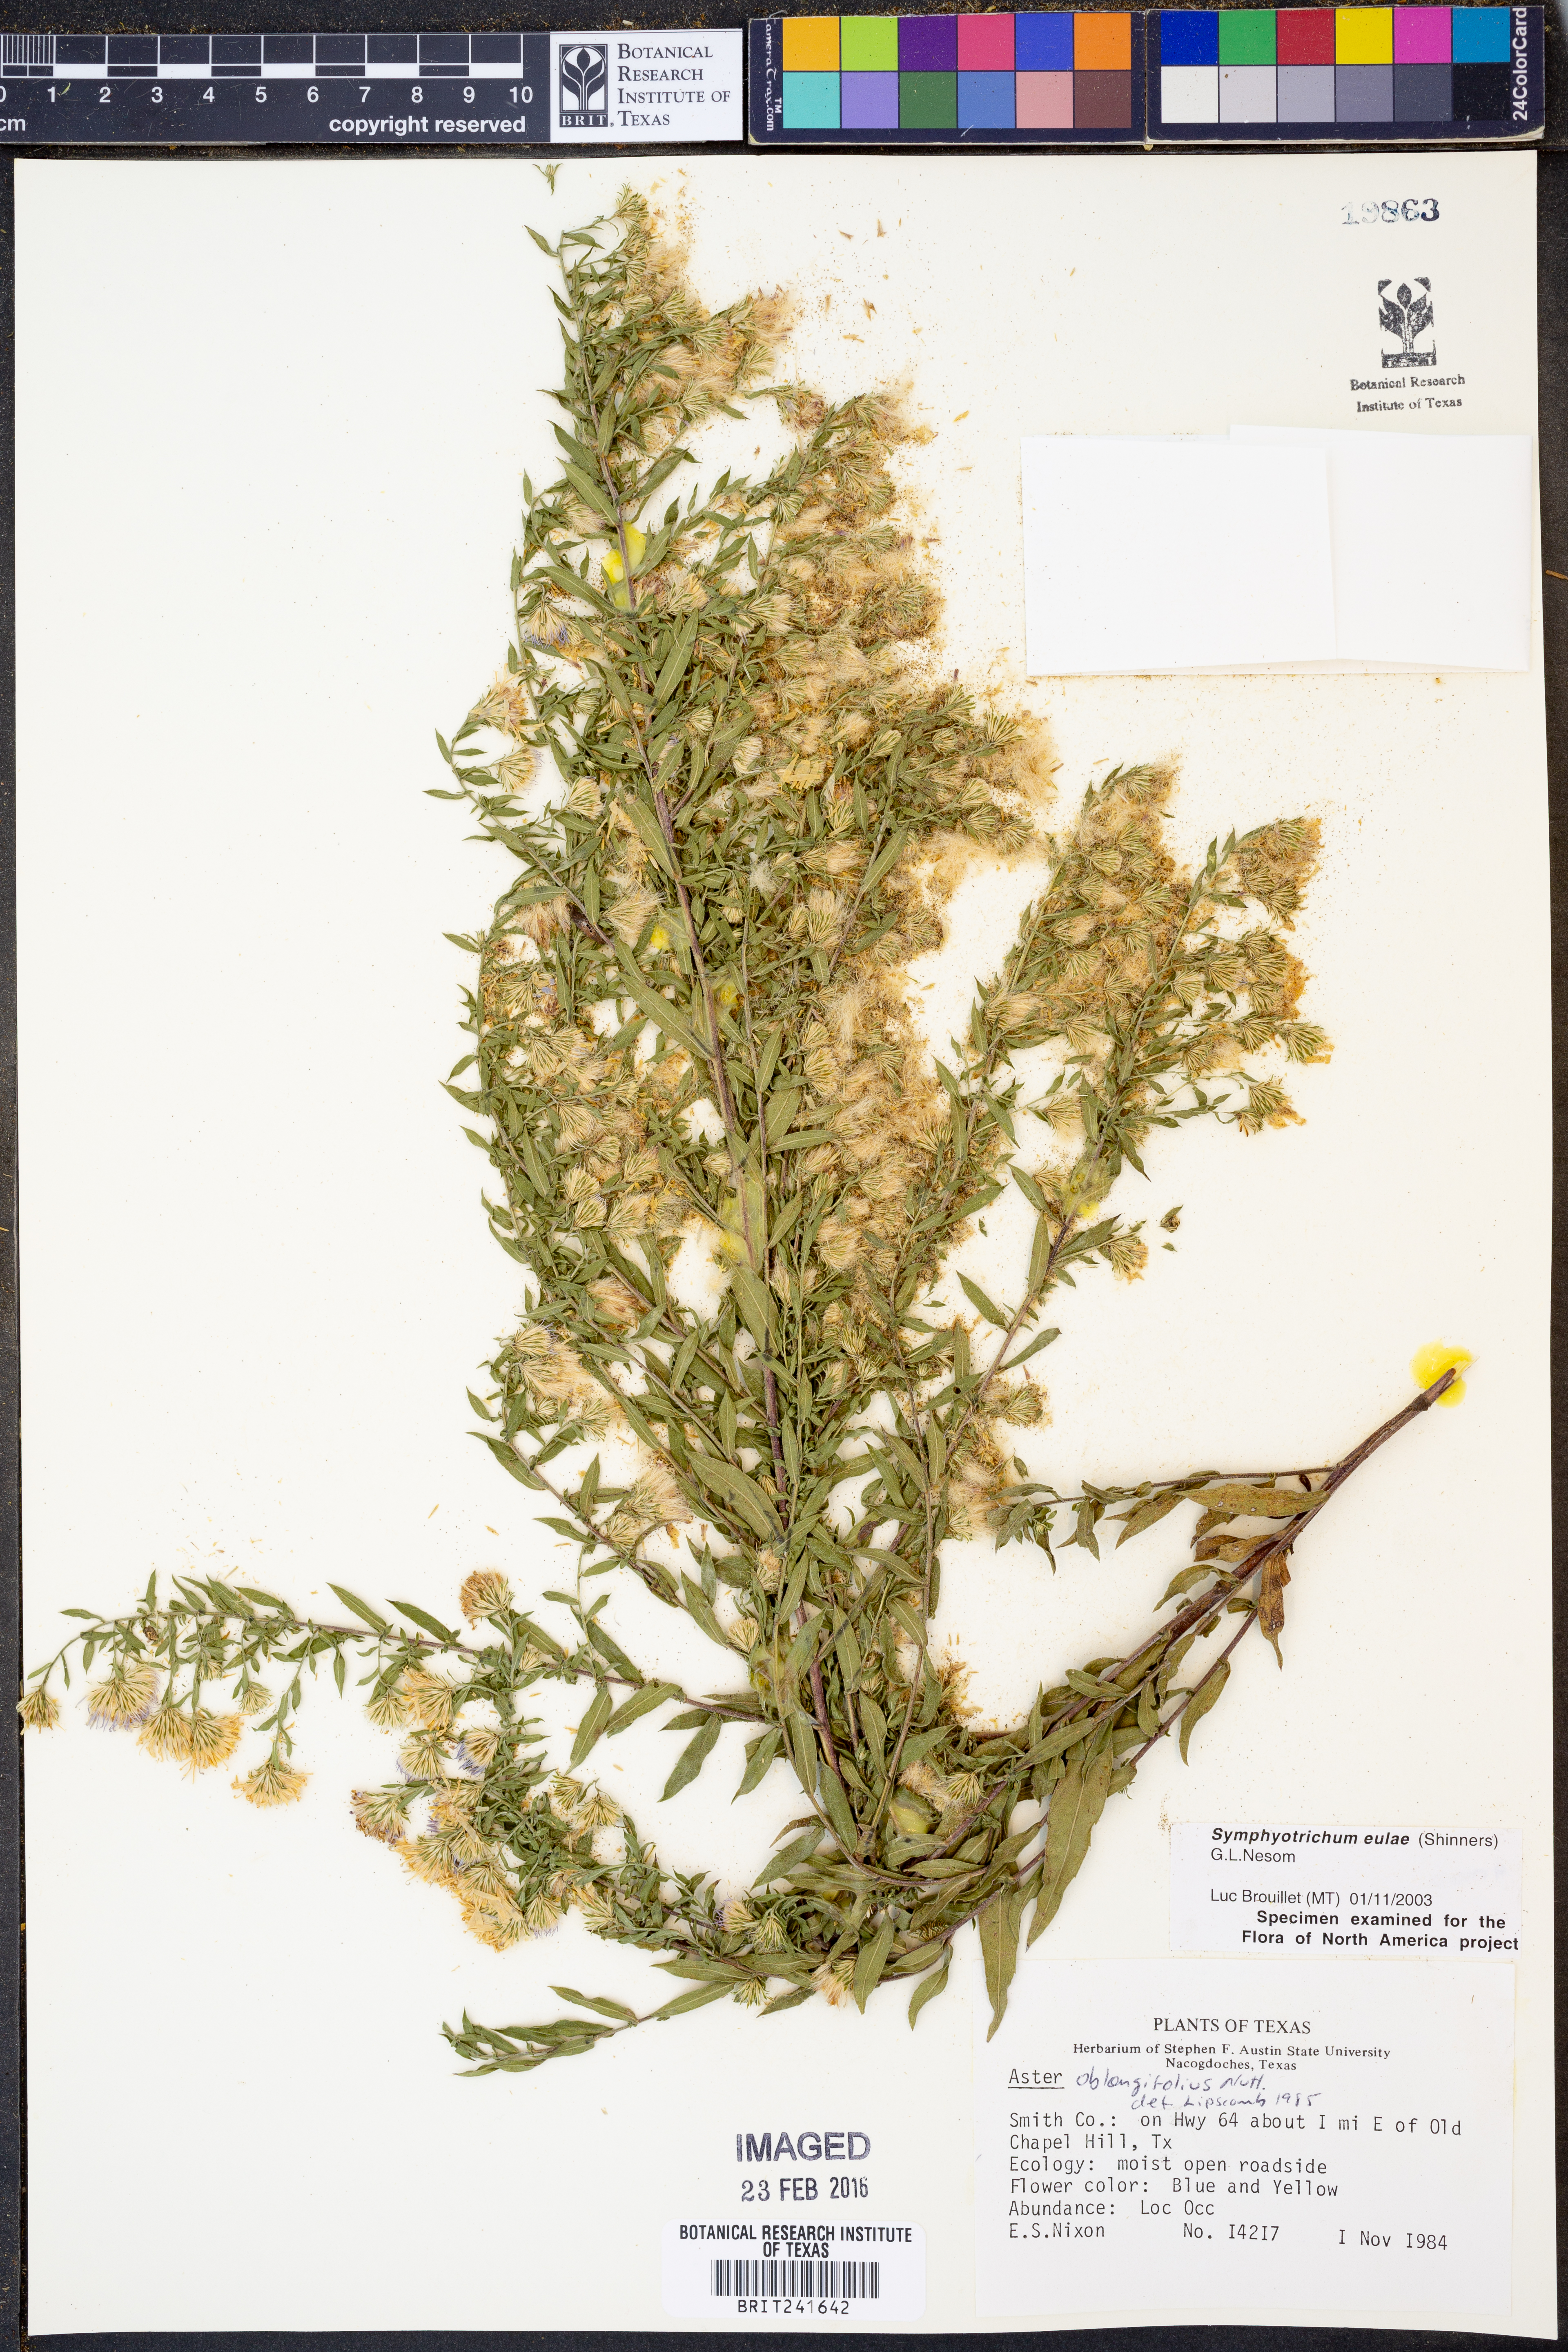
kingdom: Plantae
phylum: Tracheophyta
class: Magnoliopsida
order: Asterales
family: Asteraceae
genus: Symphyotrichum
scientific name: Symphyotrichum eulae
